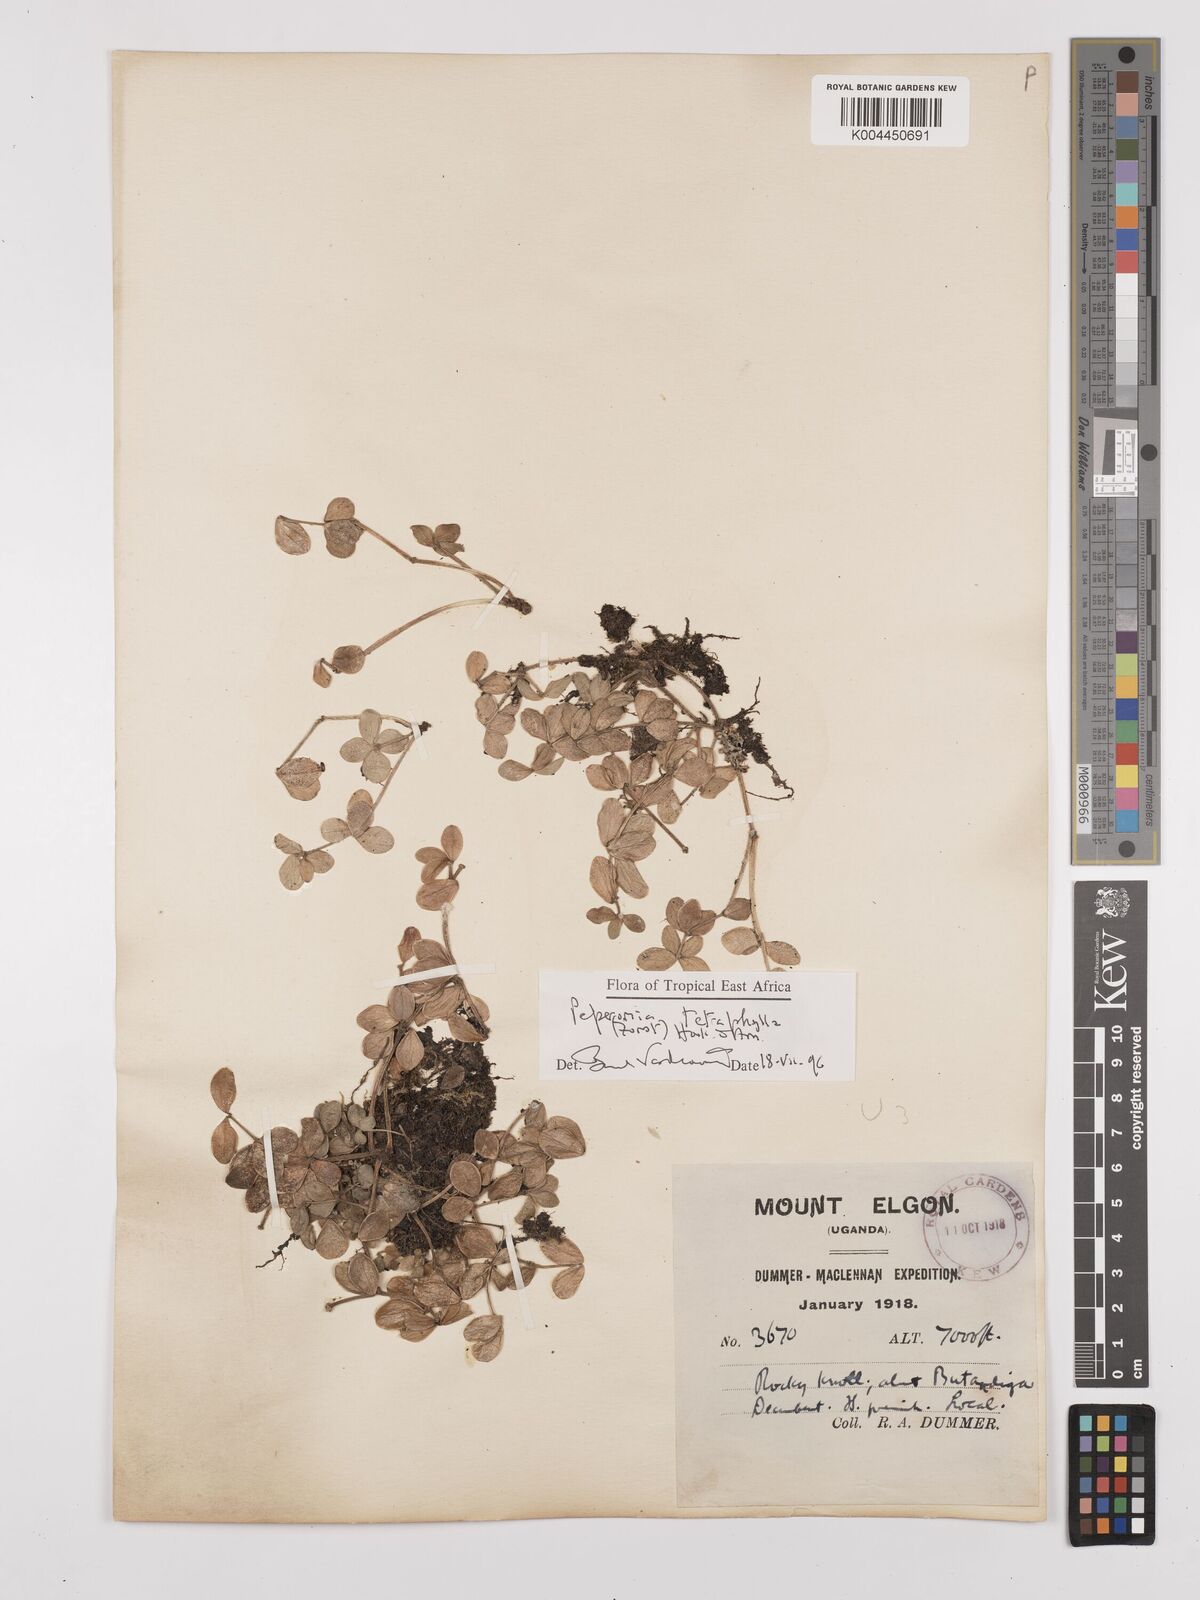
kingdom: Plantae
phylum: Tracheophyta
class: Magnoliopsida
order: Piperales
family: Piperaceae
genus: Peperomia
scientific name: Peperomia tetraphylla
